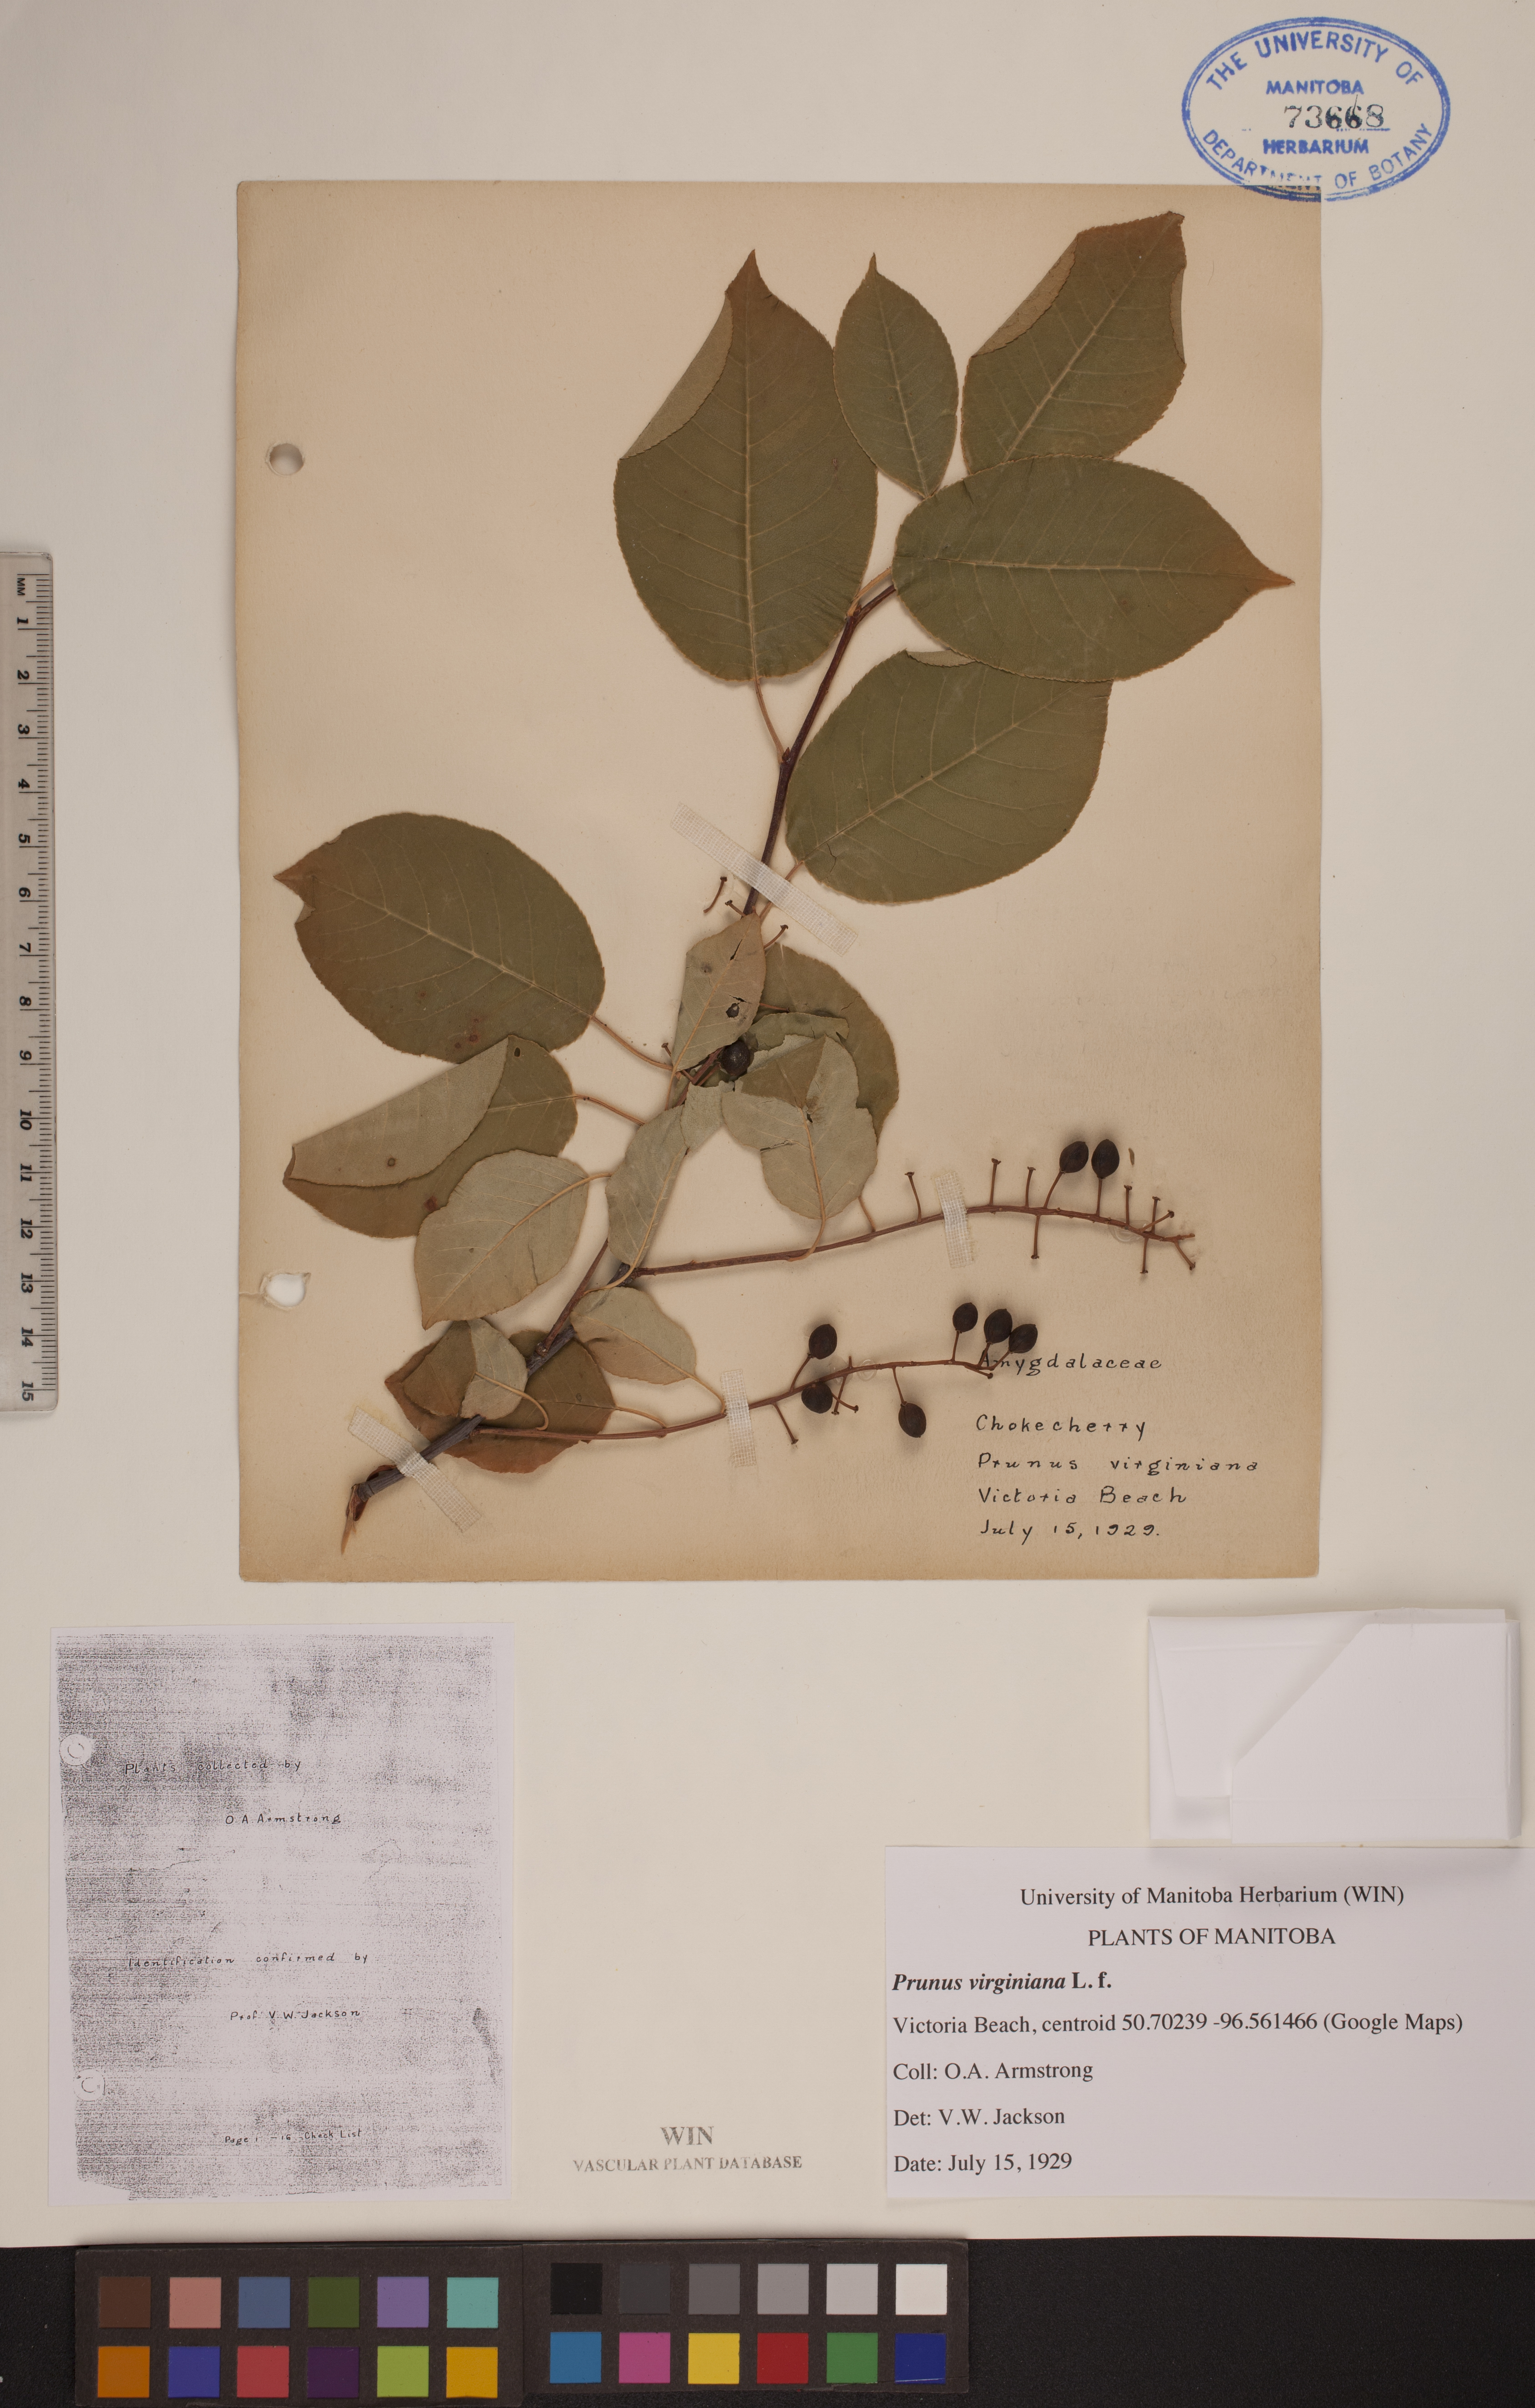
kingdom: Plantae
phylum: Tracheophyta
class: Magnoliopsida
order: Rosales
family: Rosaceae
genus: Prunus
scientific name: Prunus virginiana
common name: Chokecherry
